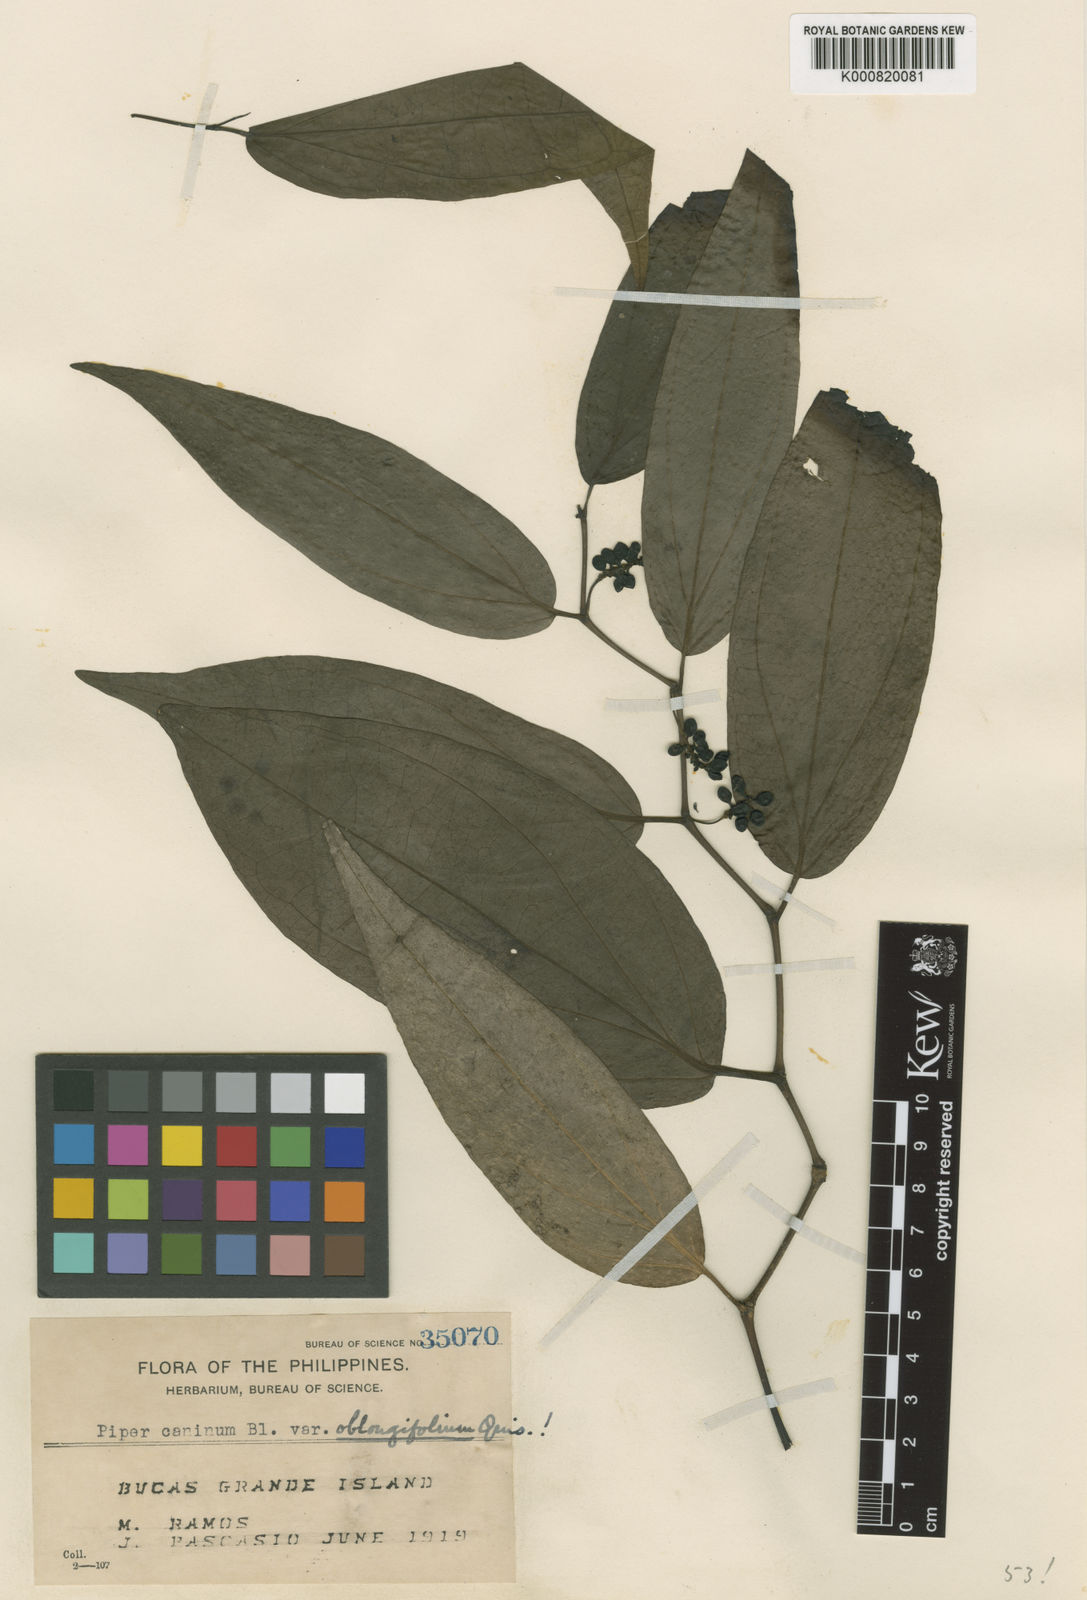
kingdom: Plantae
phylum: Tracheophyta
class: Magnoliopsida
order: Piperales
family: Piperaceae
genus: Piper
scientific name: Piper lanatum
